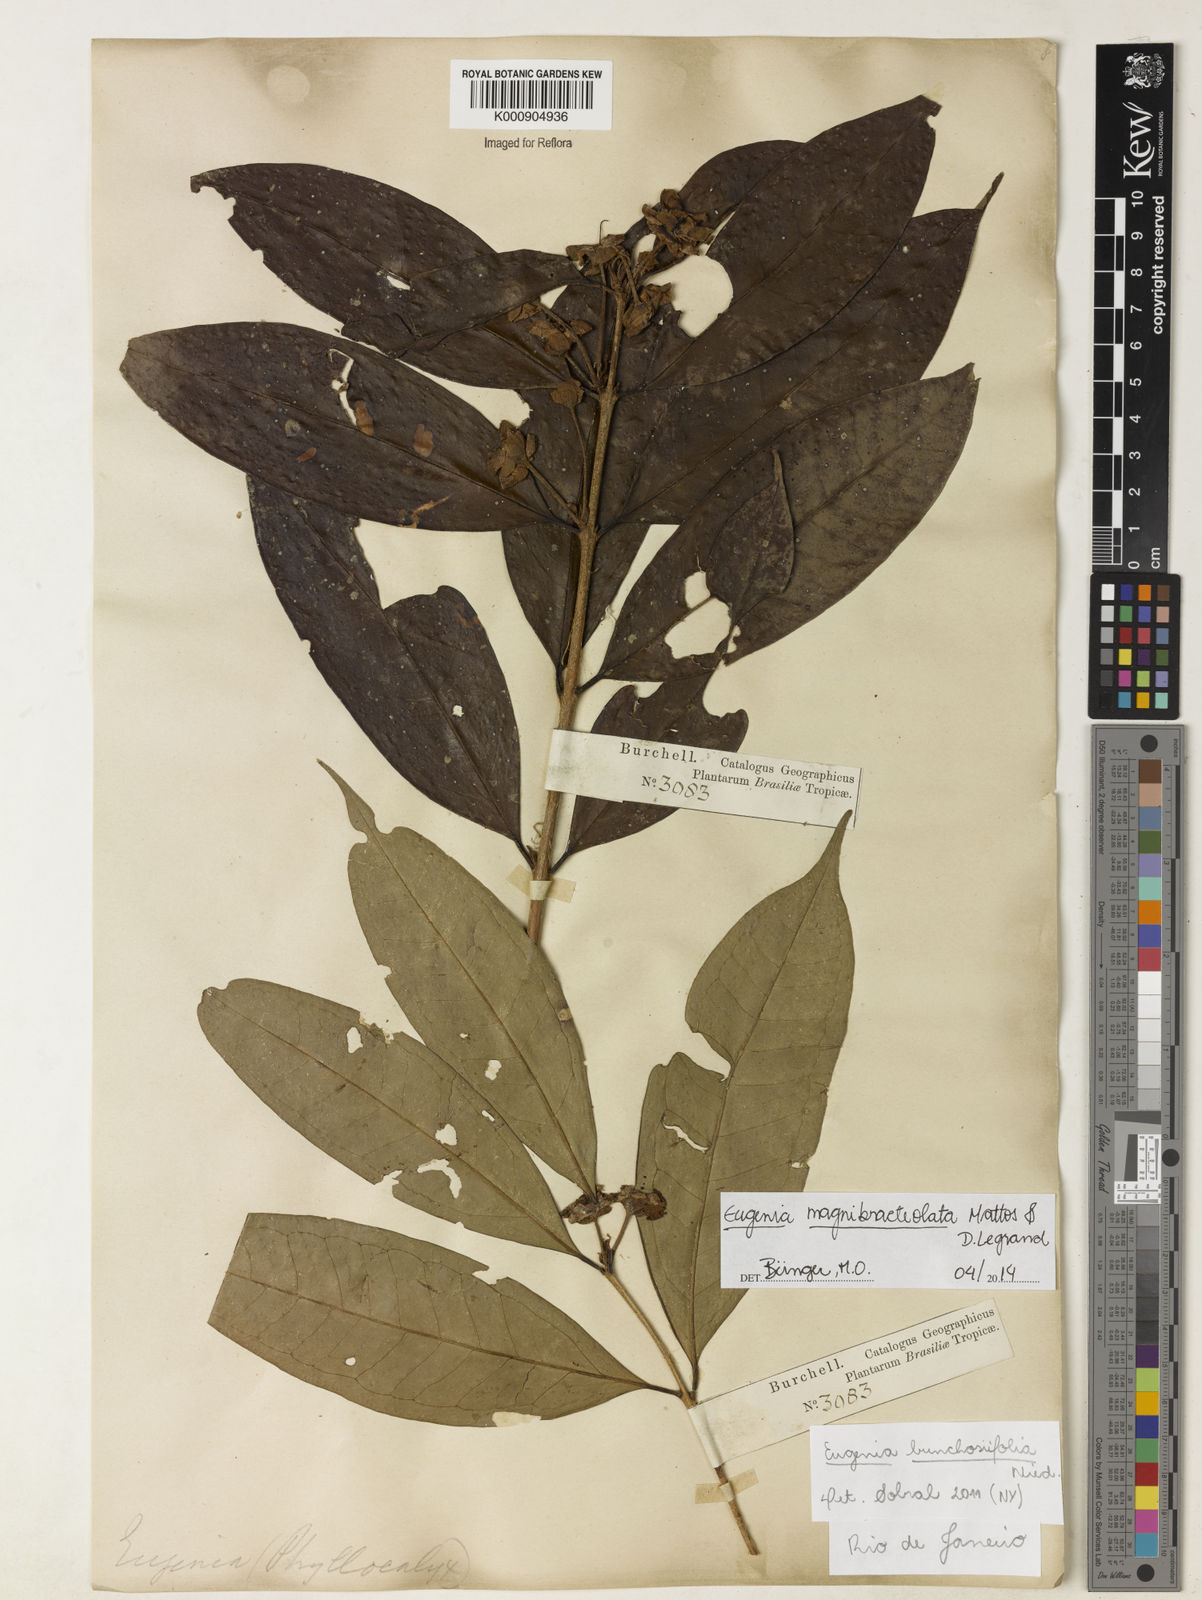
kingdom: Plantae
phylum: Tracheophyta
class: Magnoliopsida
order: Myrtales
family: Myrtaceae
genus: Eugenia
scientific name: Eugenia magnibracteolata
